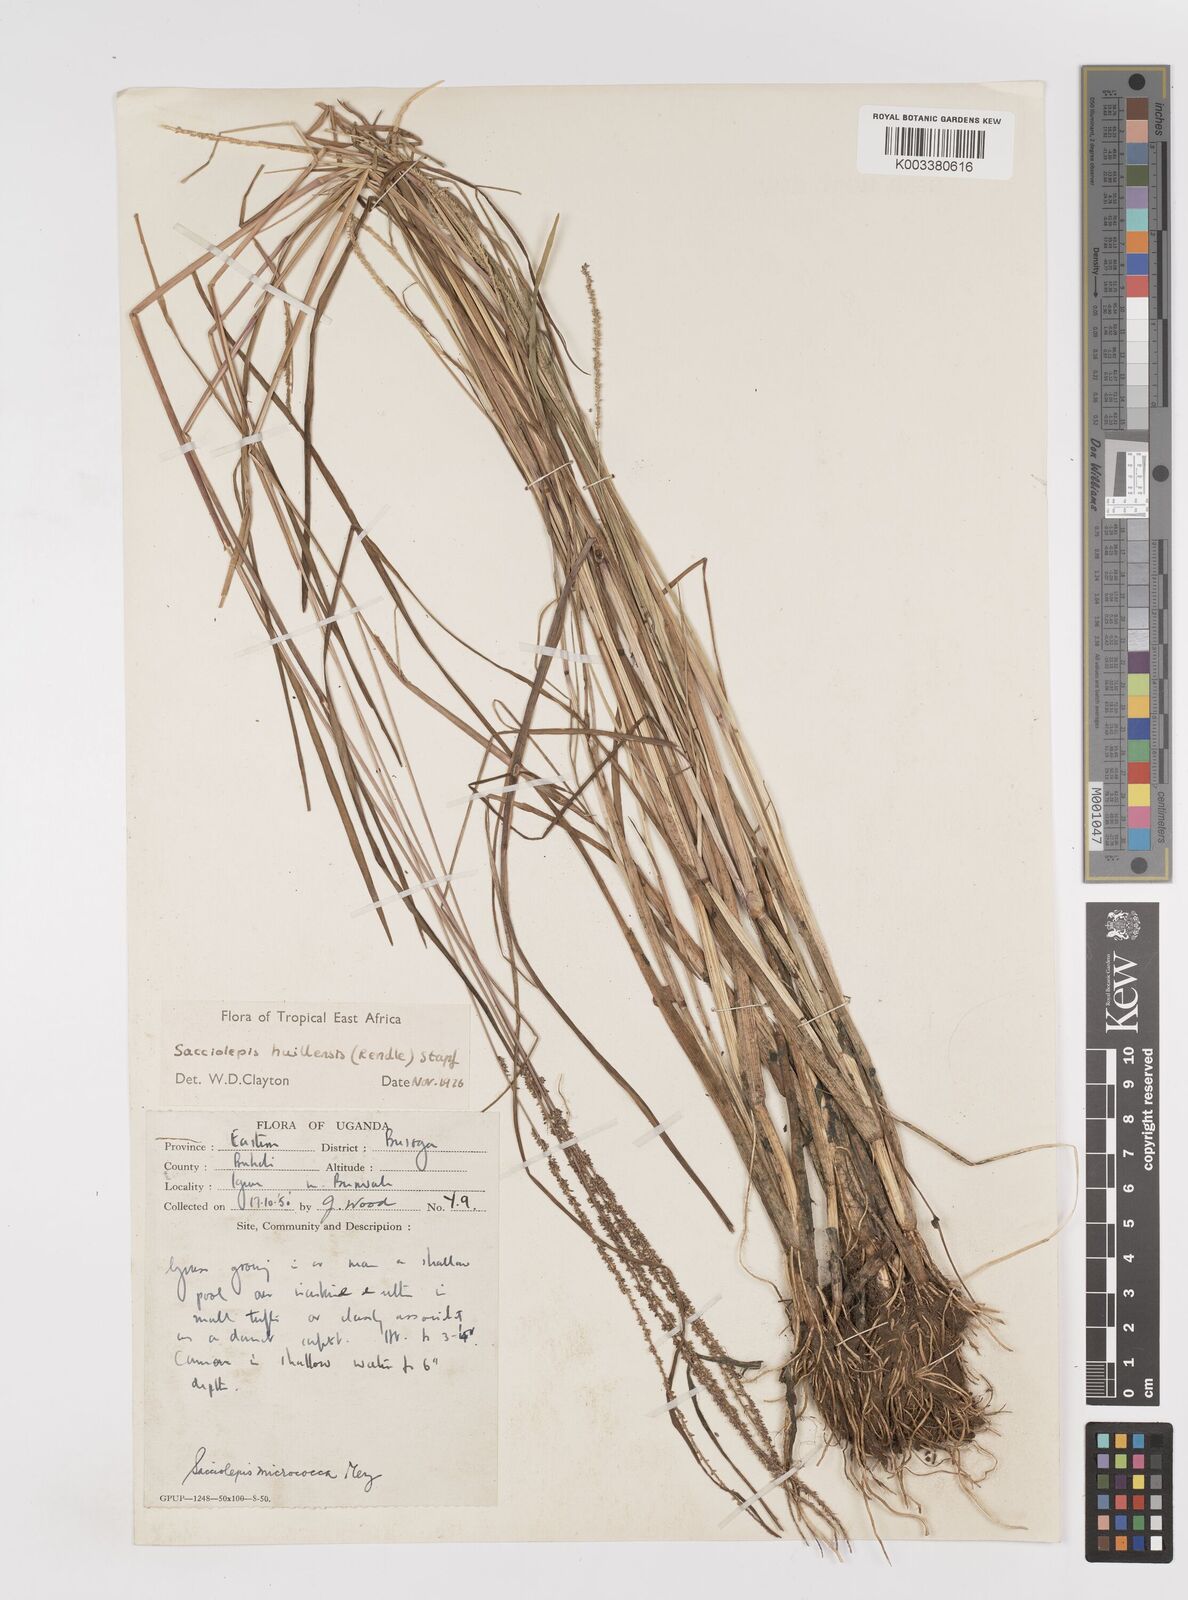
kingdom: Plantae
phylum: Tracheophyta
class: Liliopsida
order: Poales
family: Poaceae
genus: Sacciolepis
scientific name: Sacciolepis myosuroides
